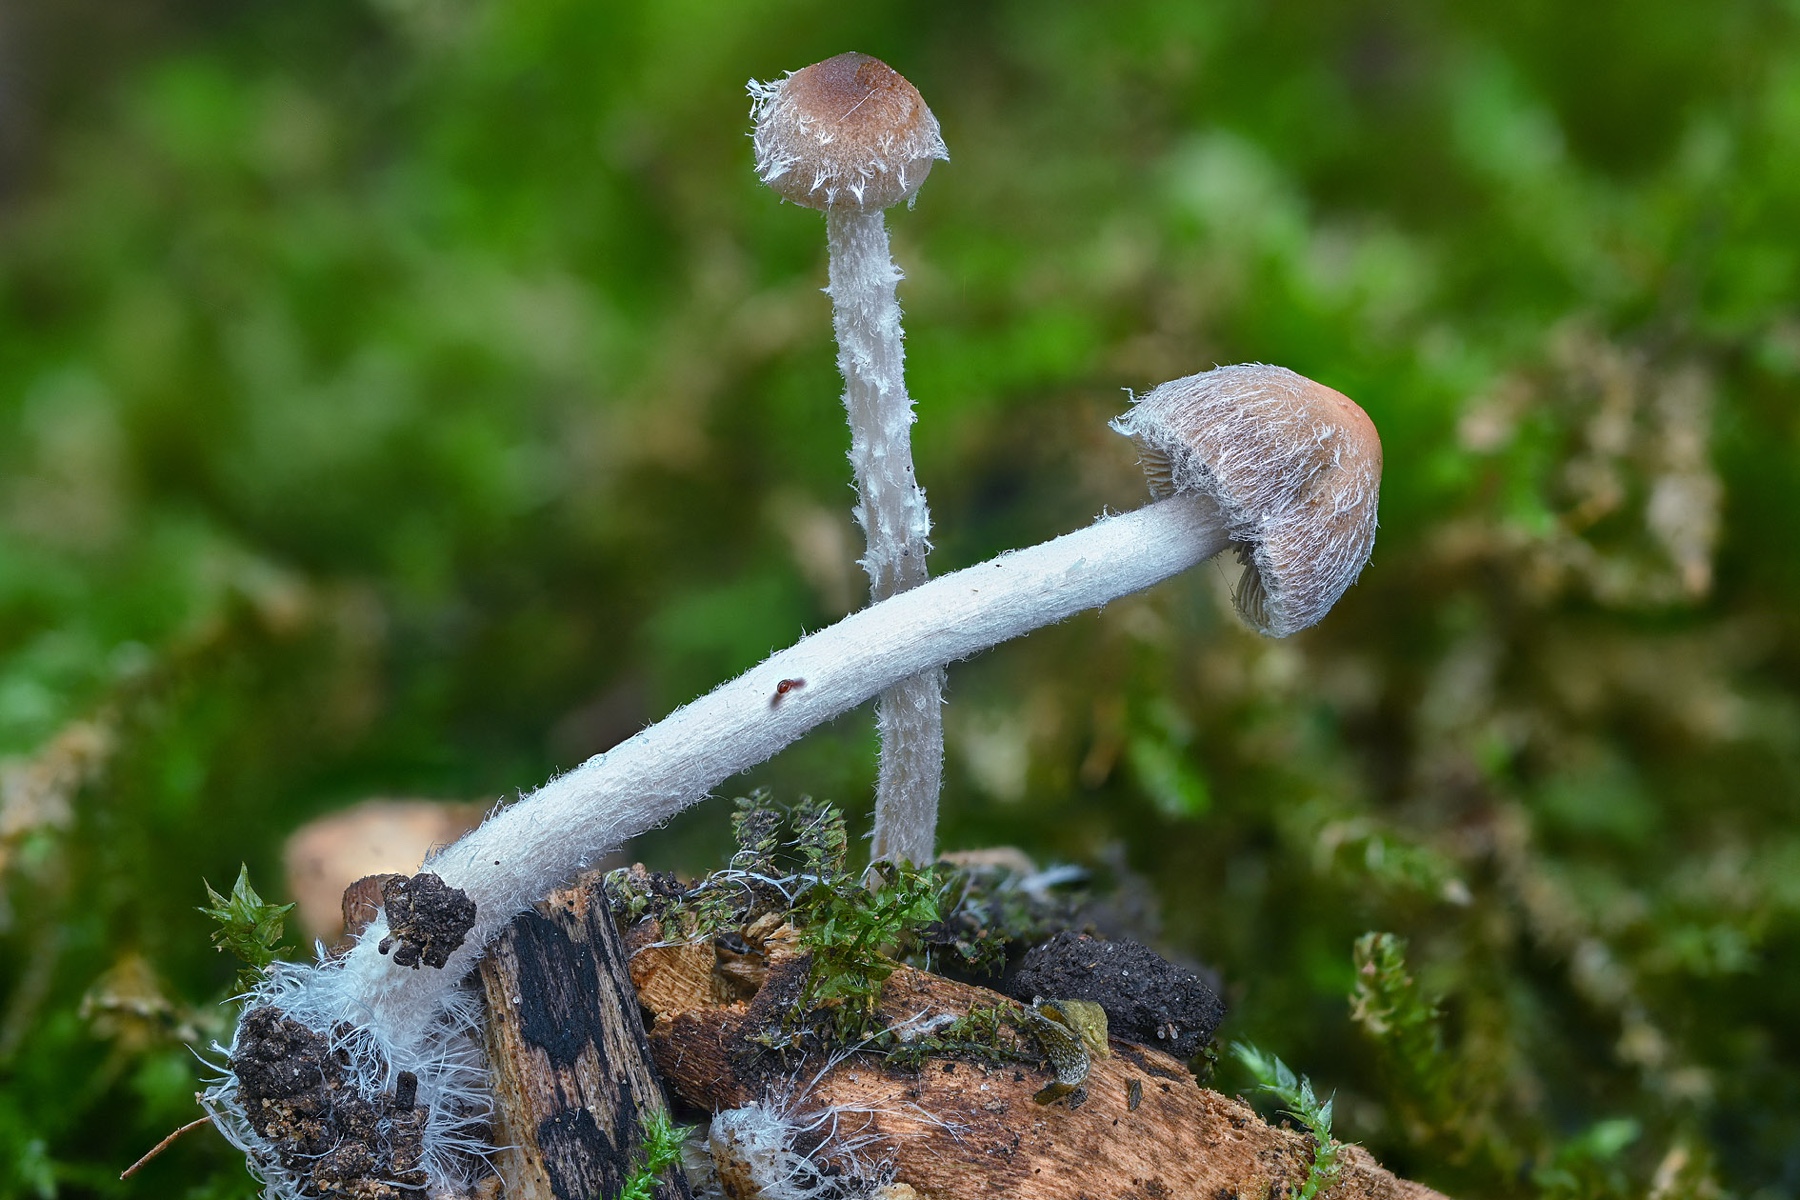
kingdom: Fungi
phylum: Basidiomycota
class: Agaricomycetes
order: Agaricales
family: Psathyrellaceae
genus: Psathyrella
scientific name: Psathyrella
